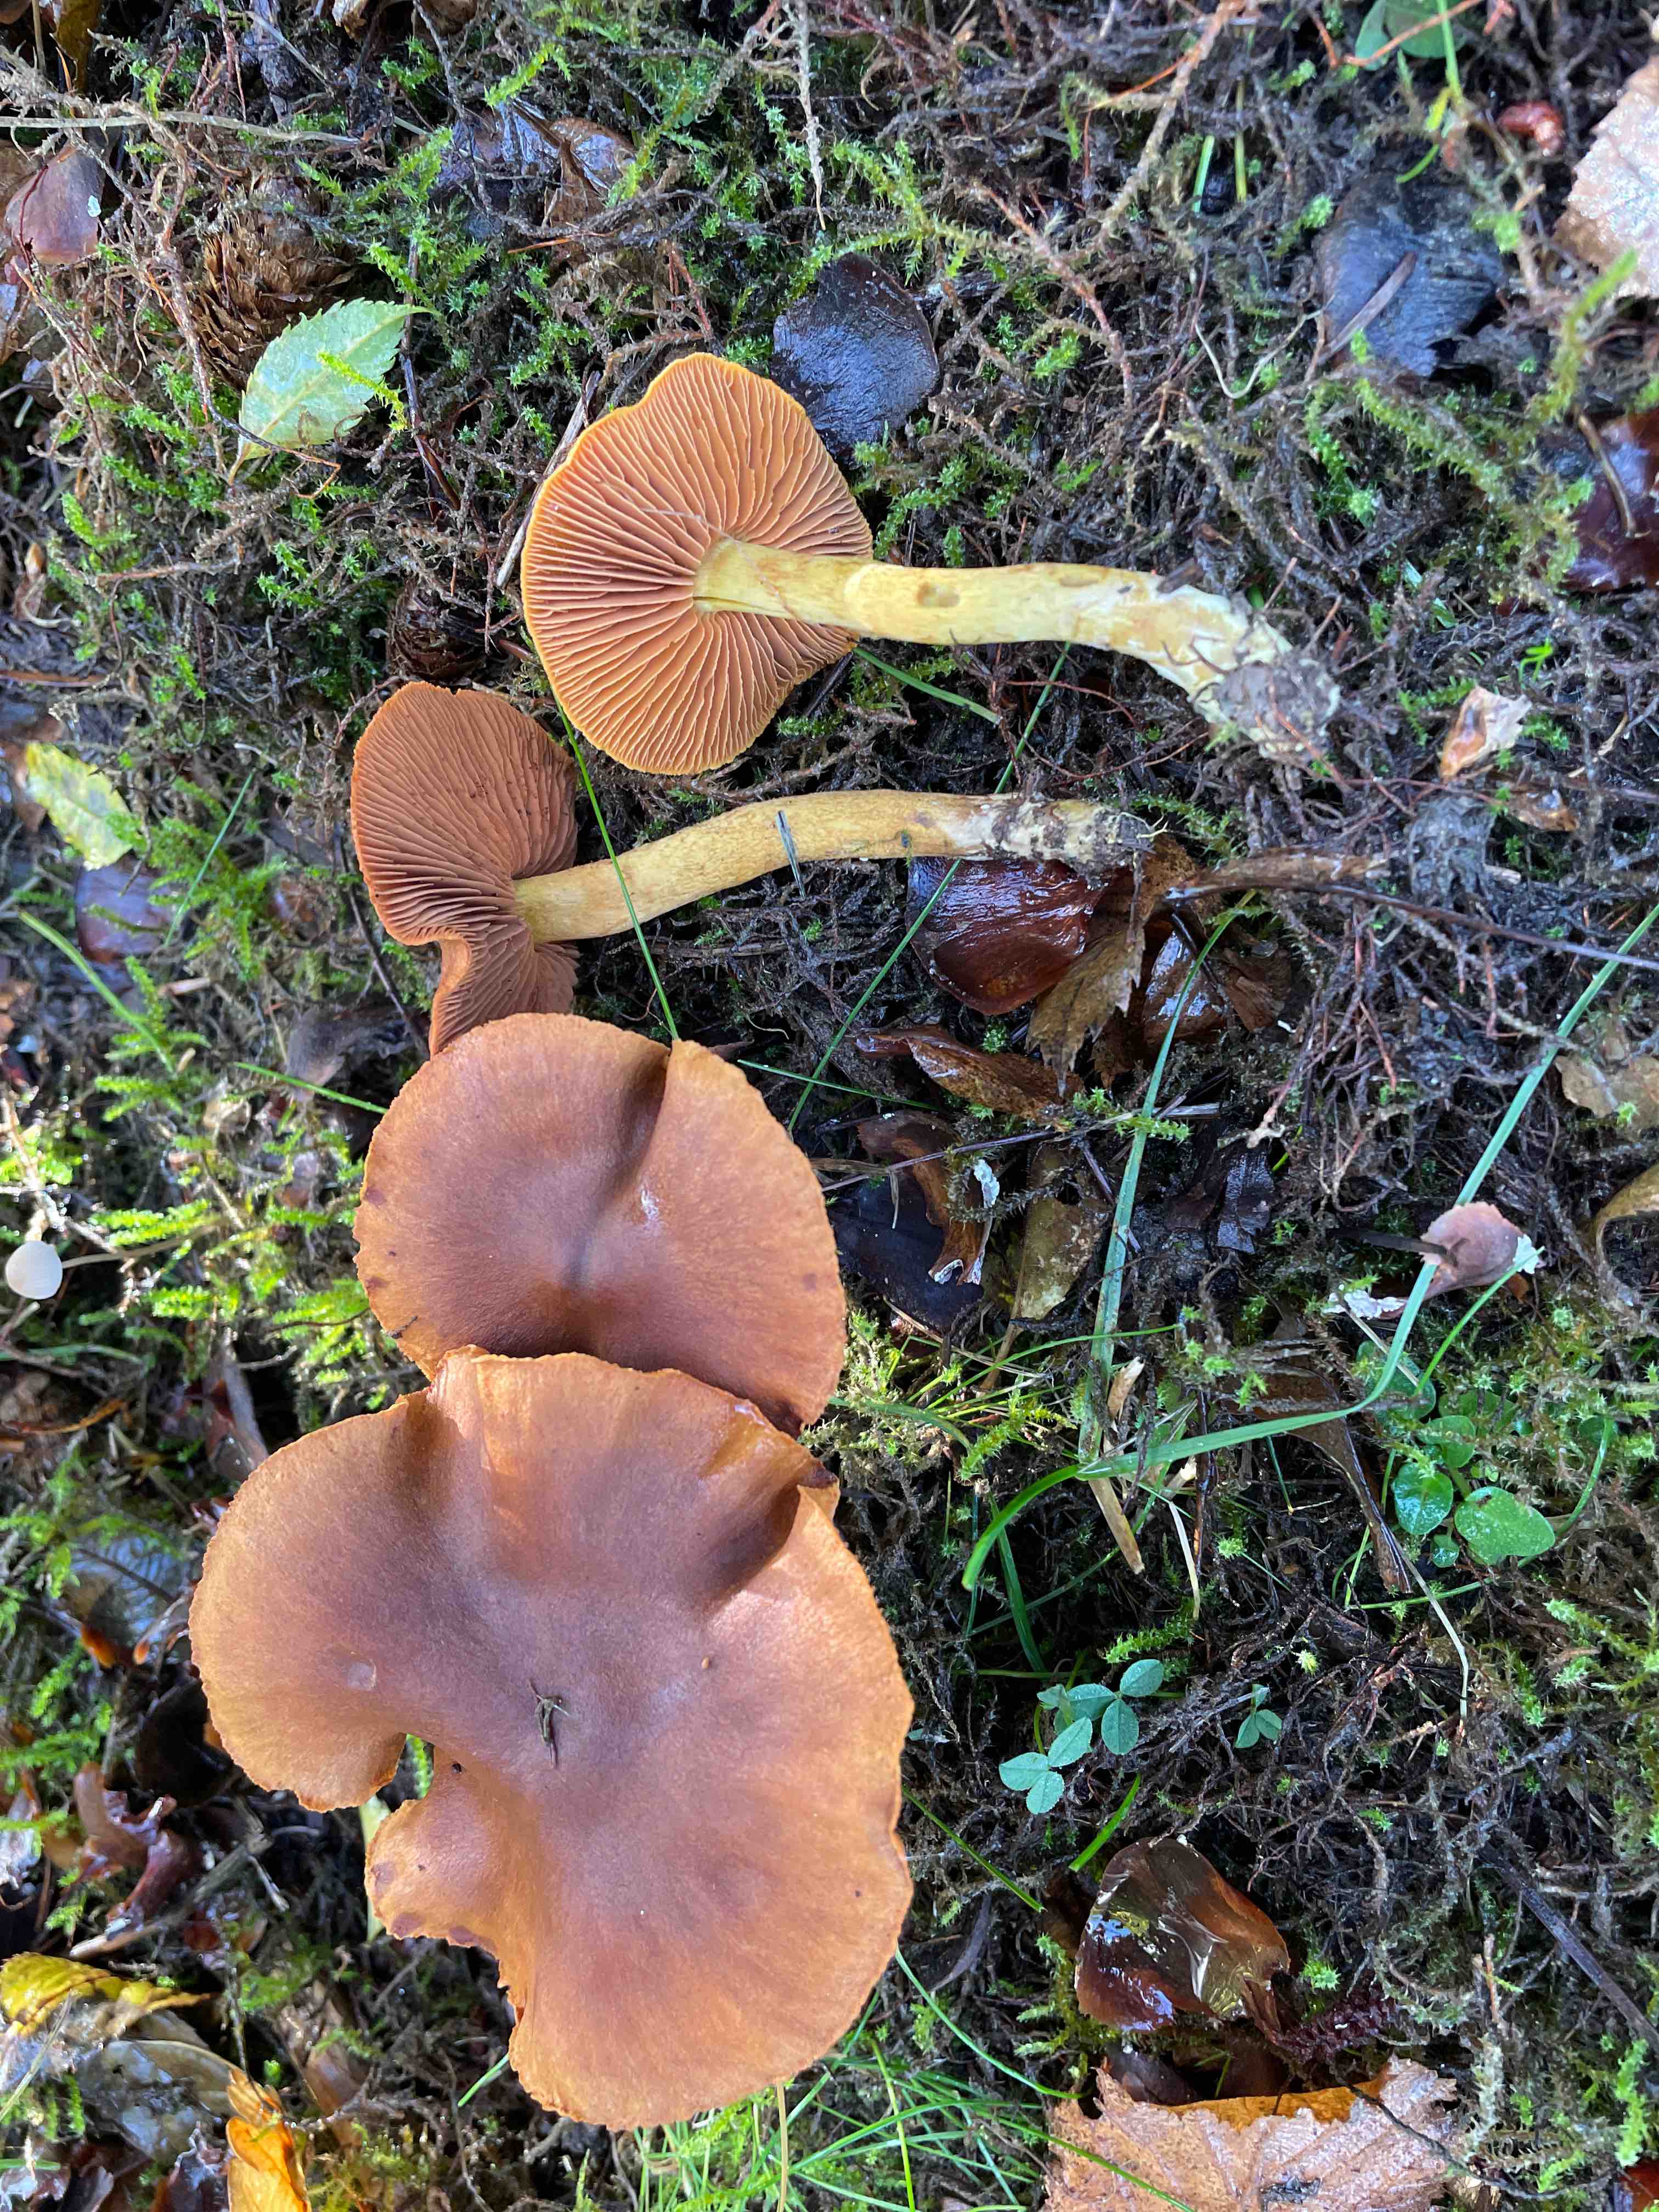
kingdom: Fungi
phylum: Basidiomycota
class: Agaricomycetes
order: Agaricales
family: Cortinariaceae
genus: Cortinarius
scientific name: Cortinarius cinnamomeus
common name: kanel-slørhat
